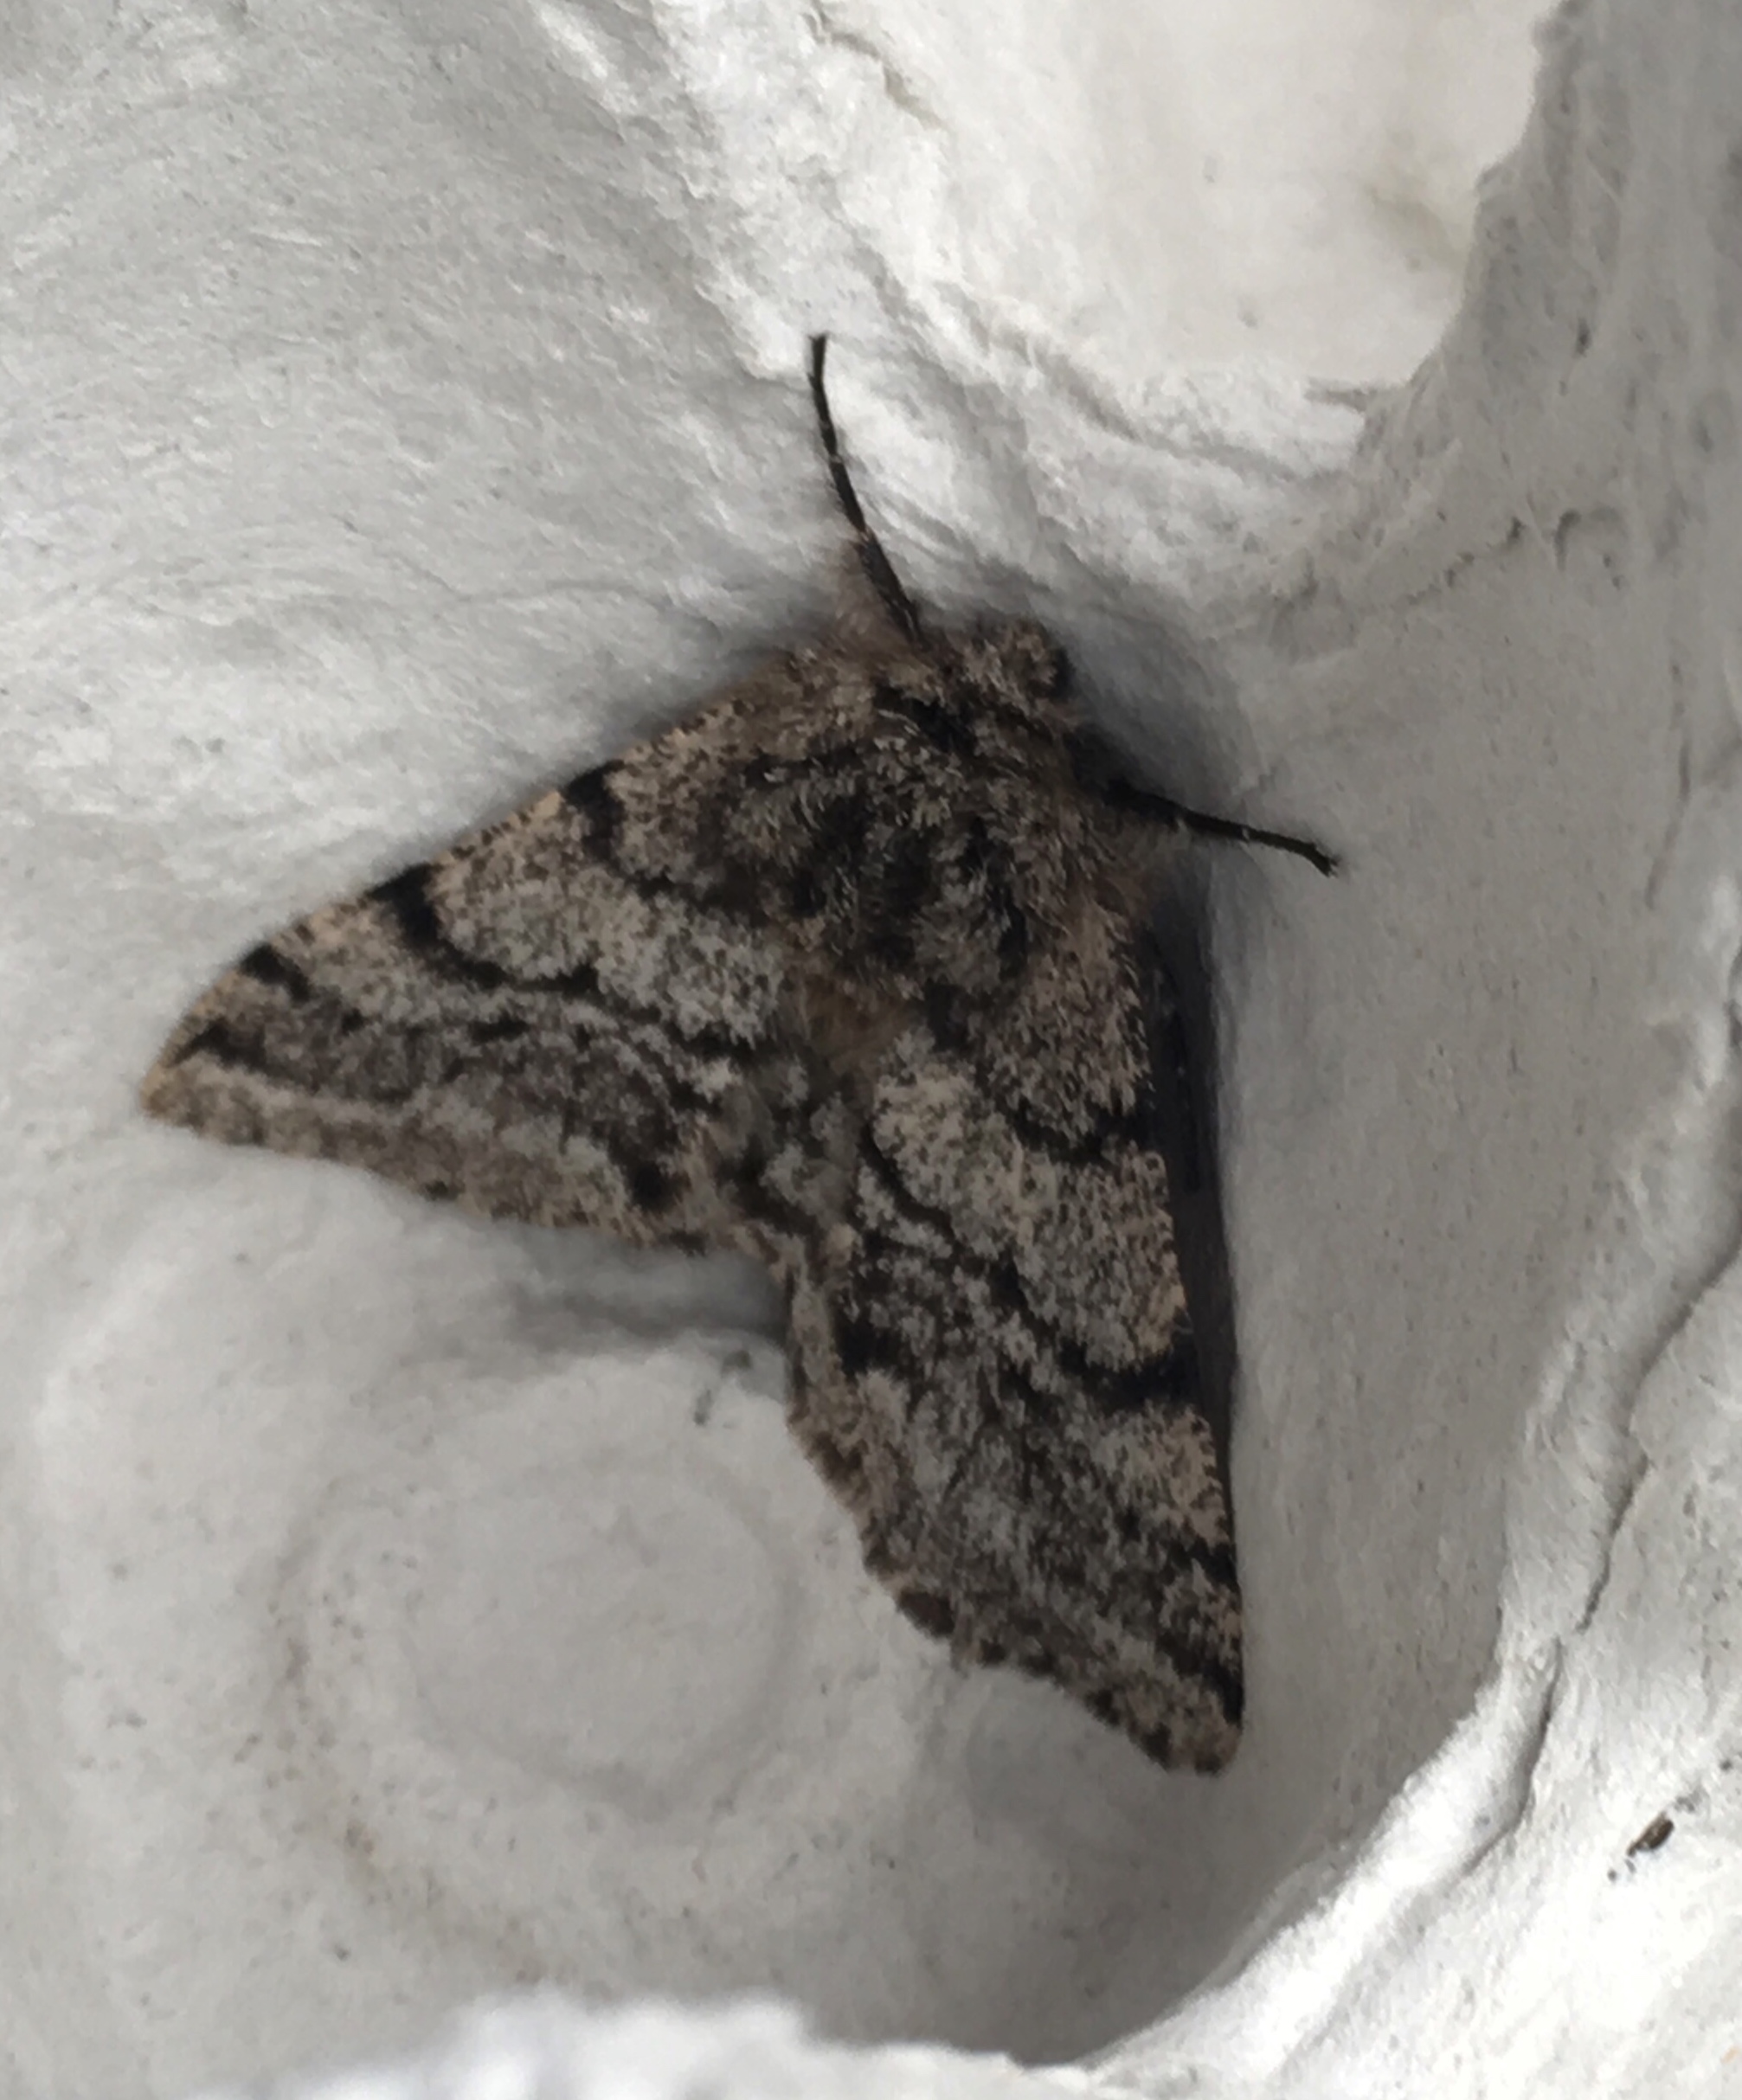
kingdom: Animalia
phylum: Arthropoda
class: Insecta
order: Lepidoptera
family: Geometridae
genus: Lycia
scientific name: Lycia hirtaria
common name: Brindled beauty
